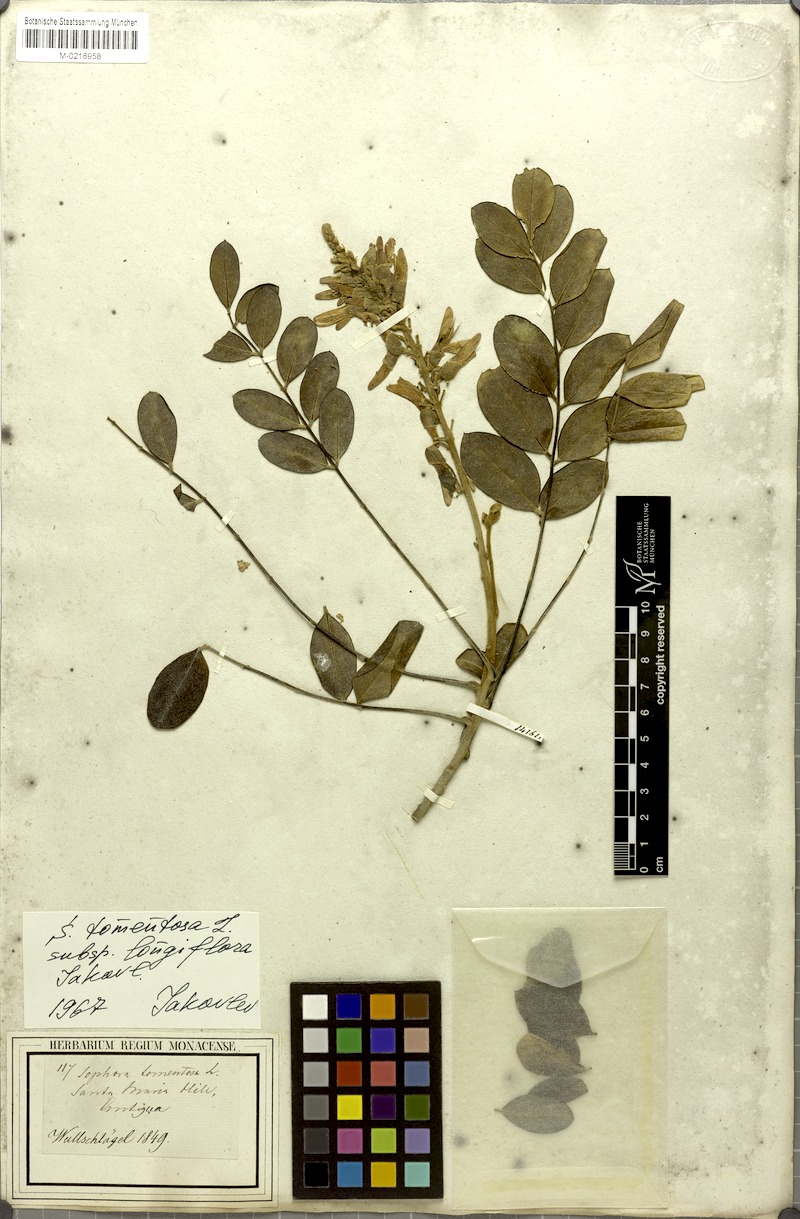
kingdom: Plantae
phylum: Tracheophyta
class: Magnoliopsida
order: Fabales
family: Fabaceae
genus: Sophora
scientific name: Sophora tomentosa
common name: Yellow necklacepod
